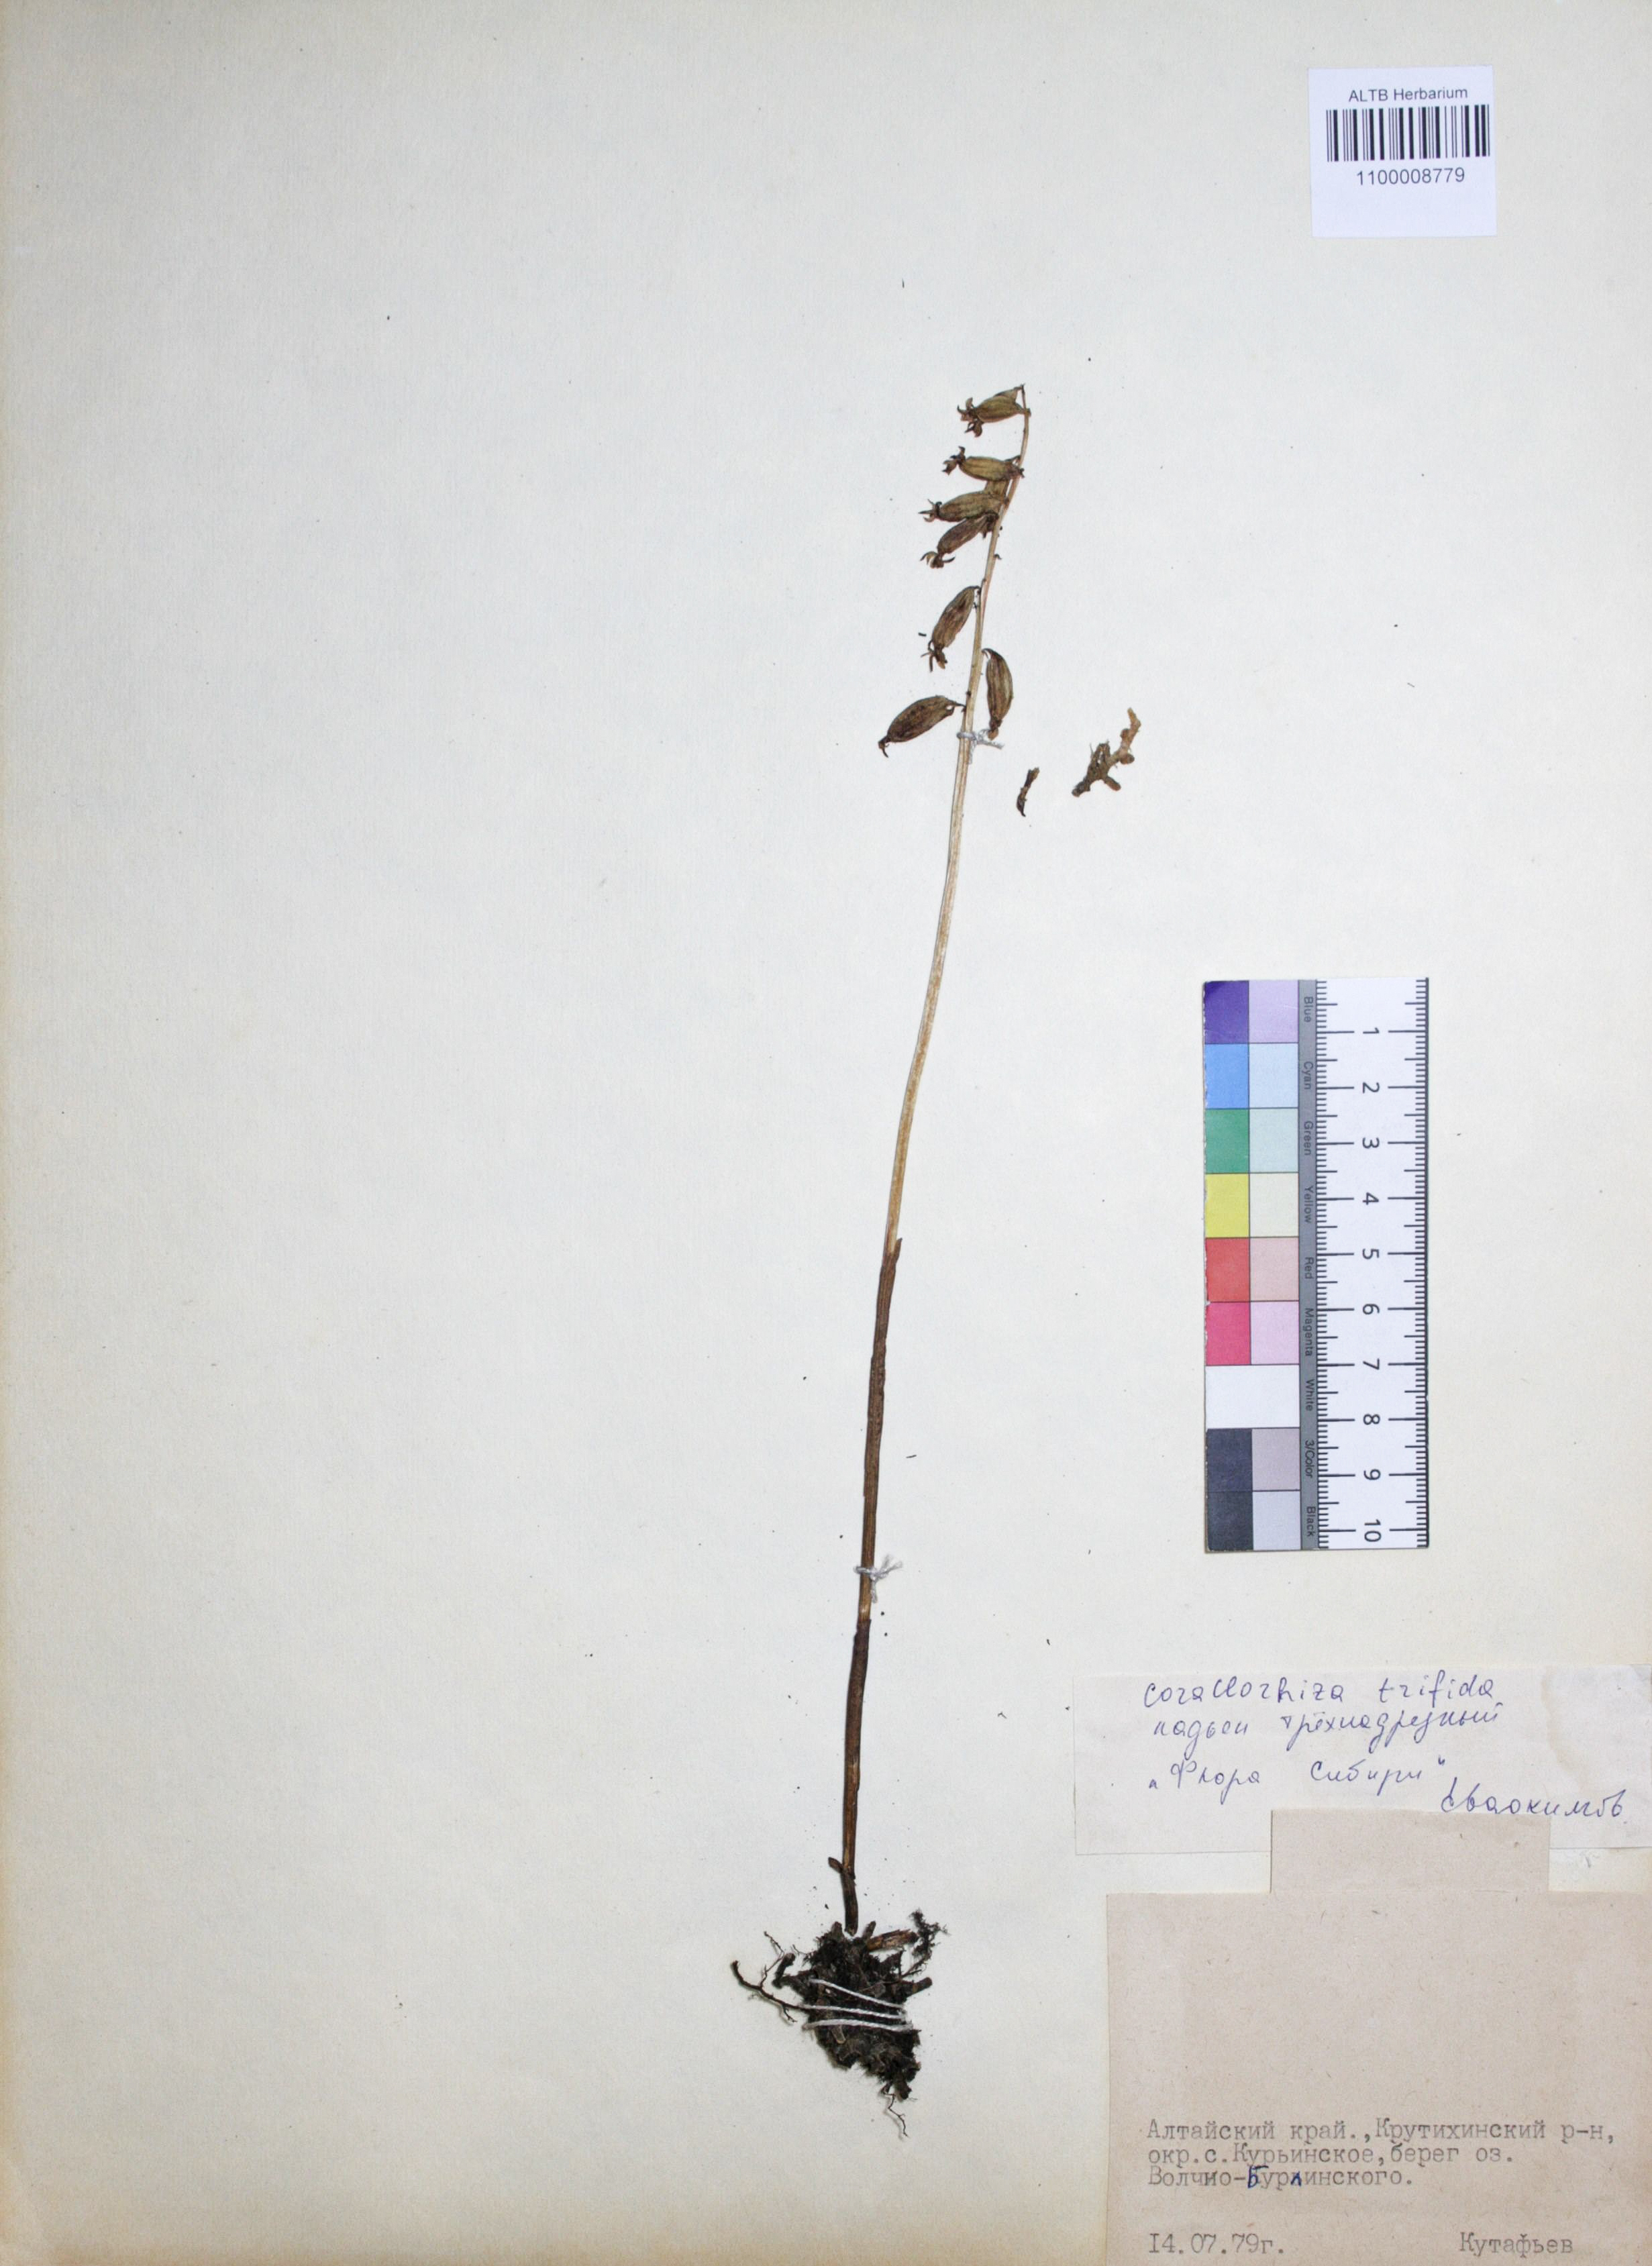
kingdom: Plantae
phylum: Tracheophyta
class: Liliopsida
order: Asparagales
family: Orchidaceae
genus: Corallorhiza
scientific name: Corallorhiza trifida
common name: Yellow coralroot
